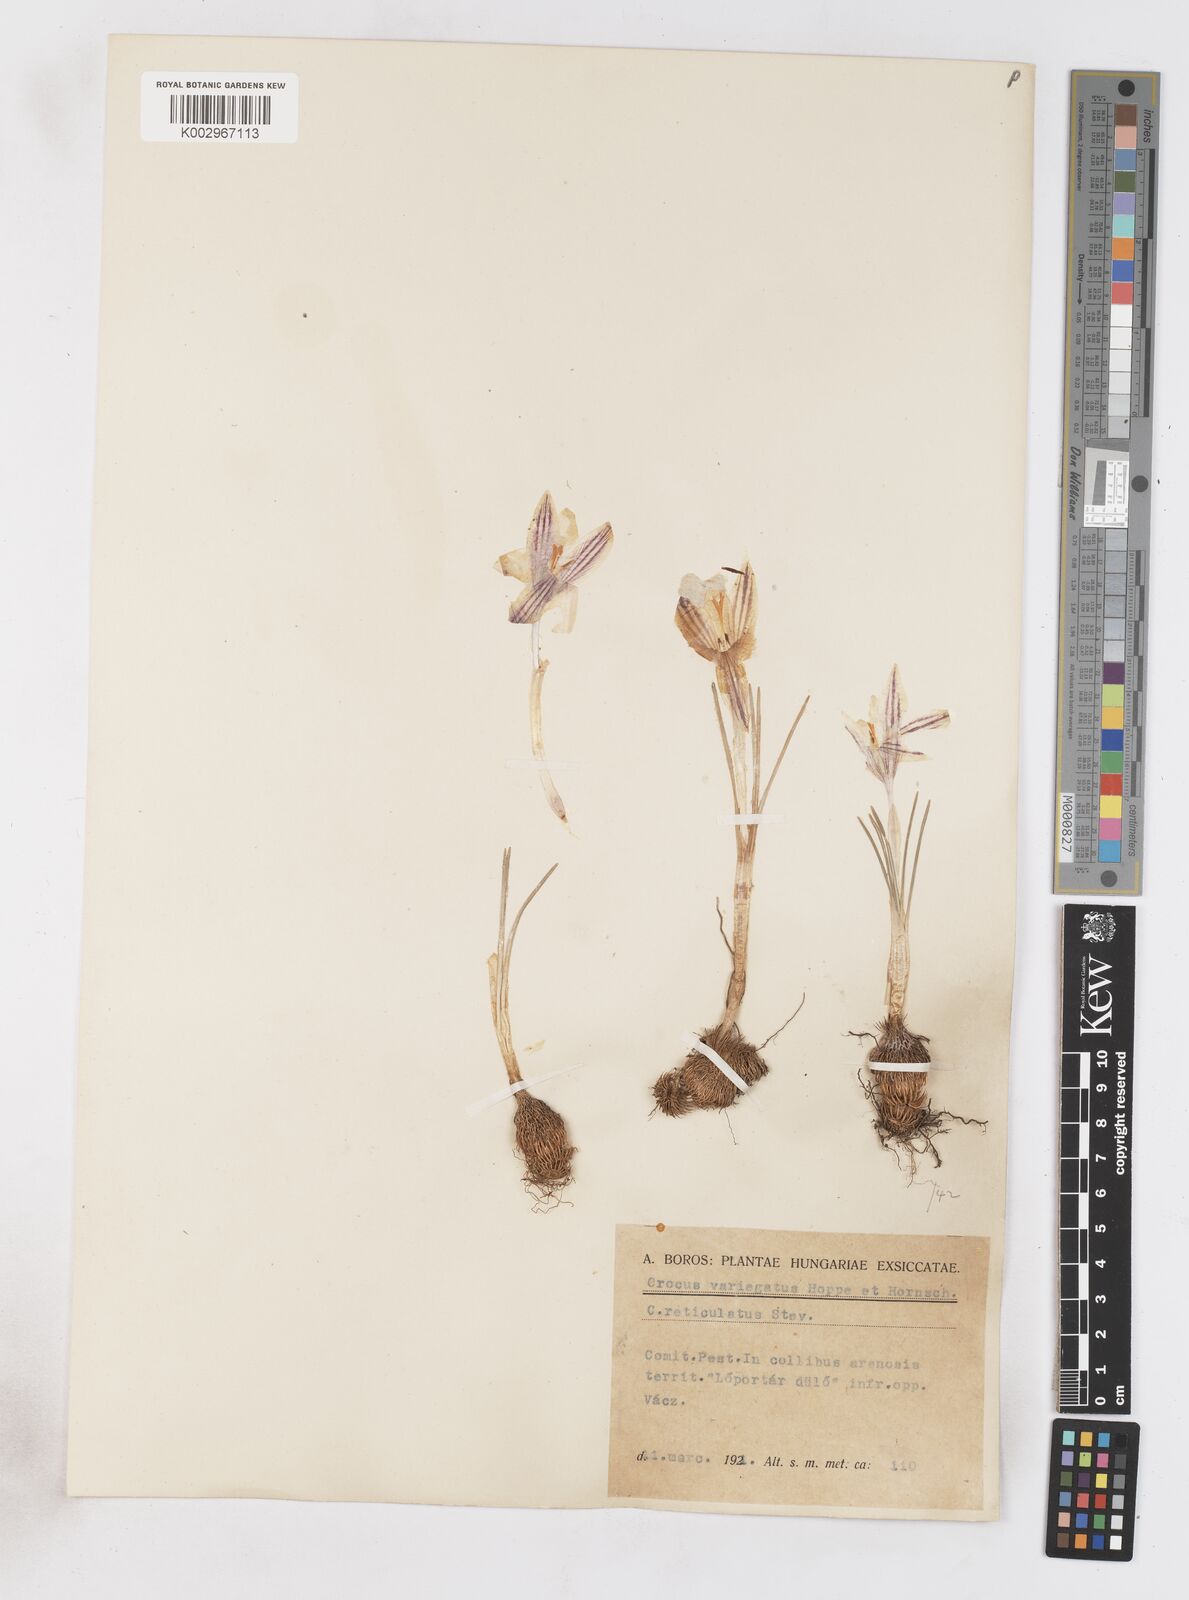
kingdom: Plantae
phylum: Tracheophyta
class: Liliopsida
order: Asparagales
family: Iridaceae
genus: Crocus
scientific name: Crocus reticulatus
